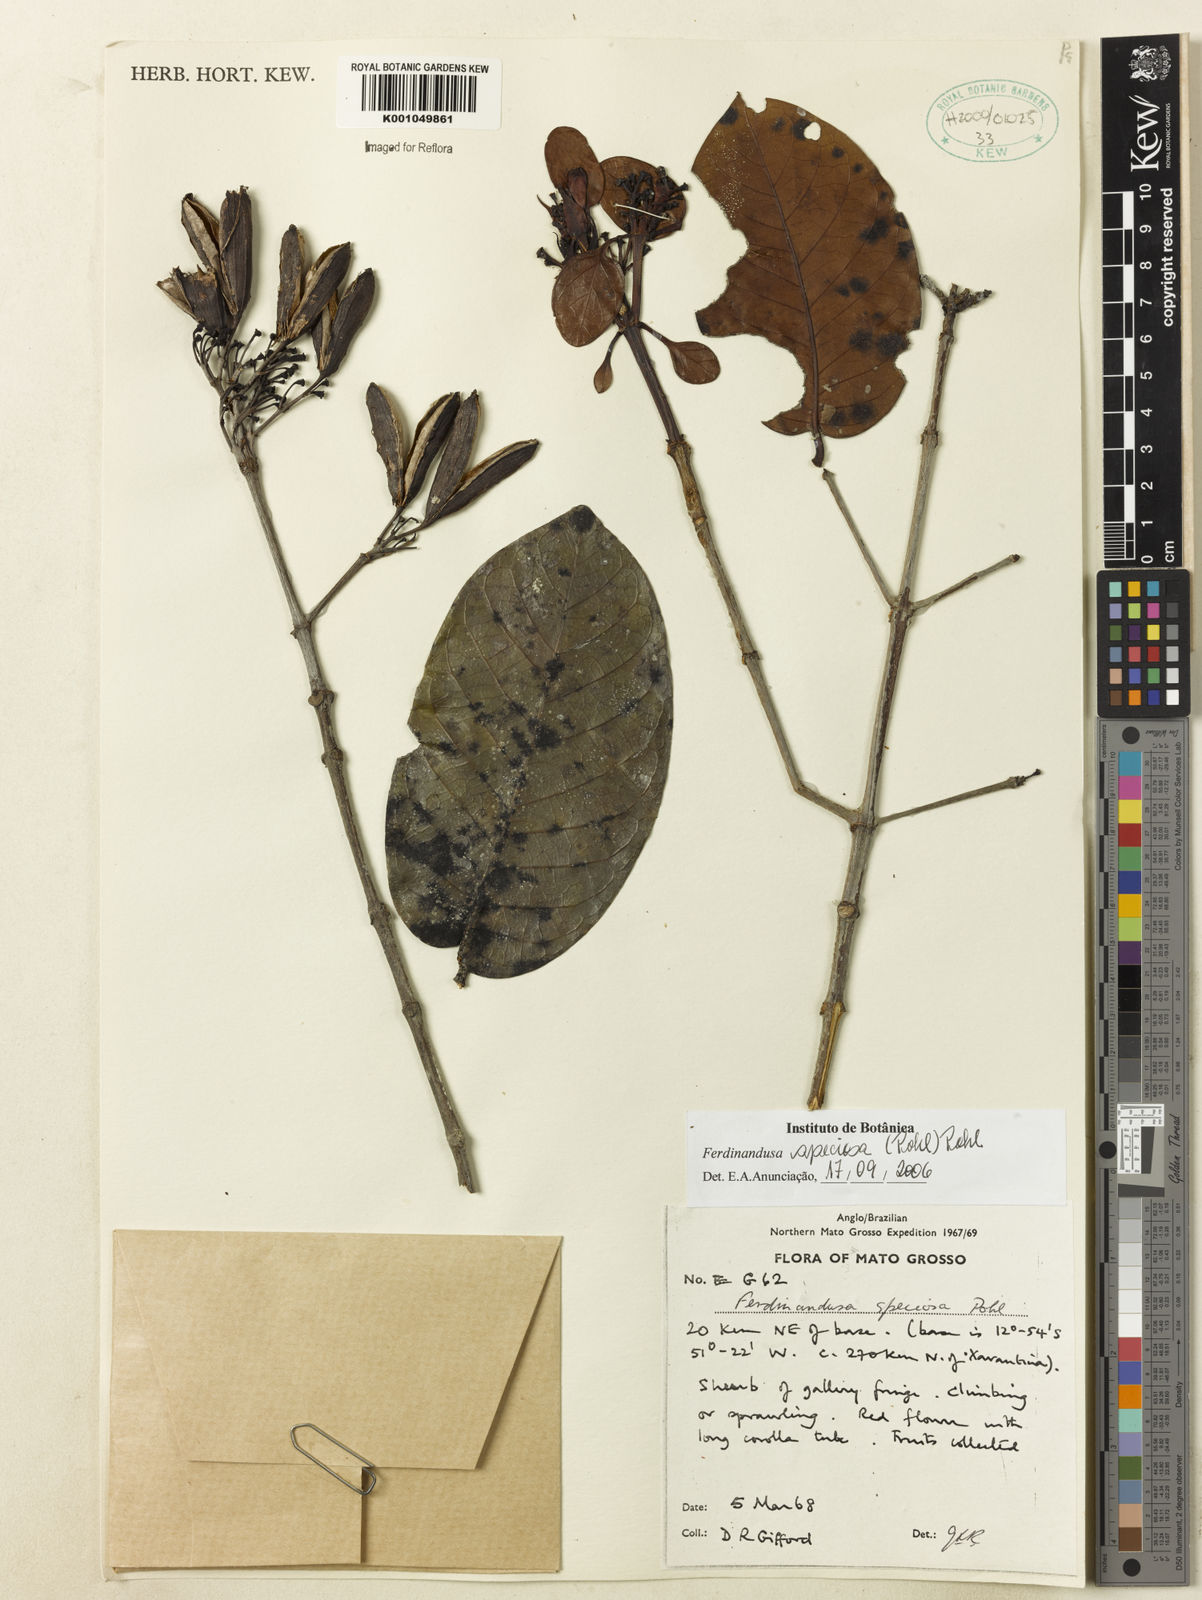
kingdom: Plantae
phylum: Tracheophyta
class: Magnoliopsida
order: Gentianales
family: Rubiaceae
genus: Ferdinandusa
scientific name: Ferdinandusa speciosa
